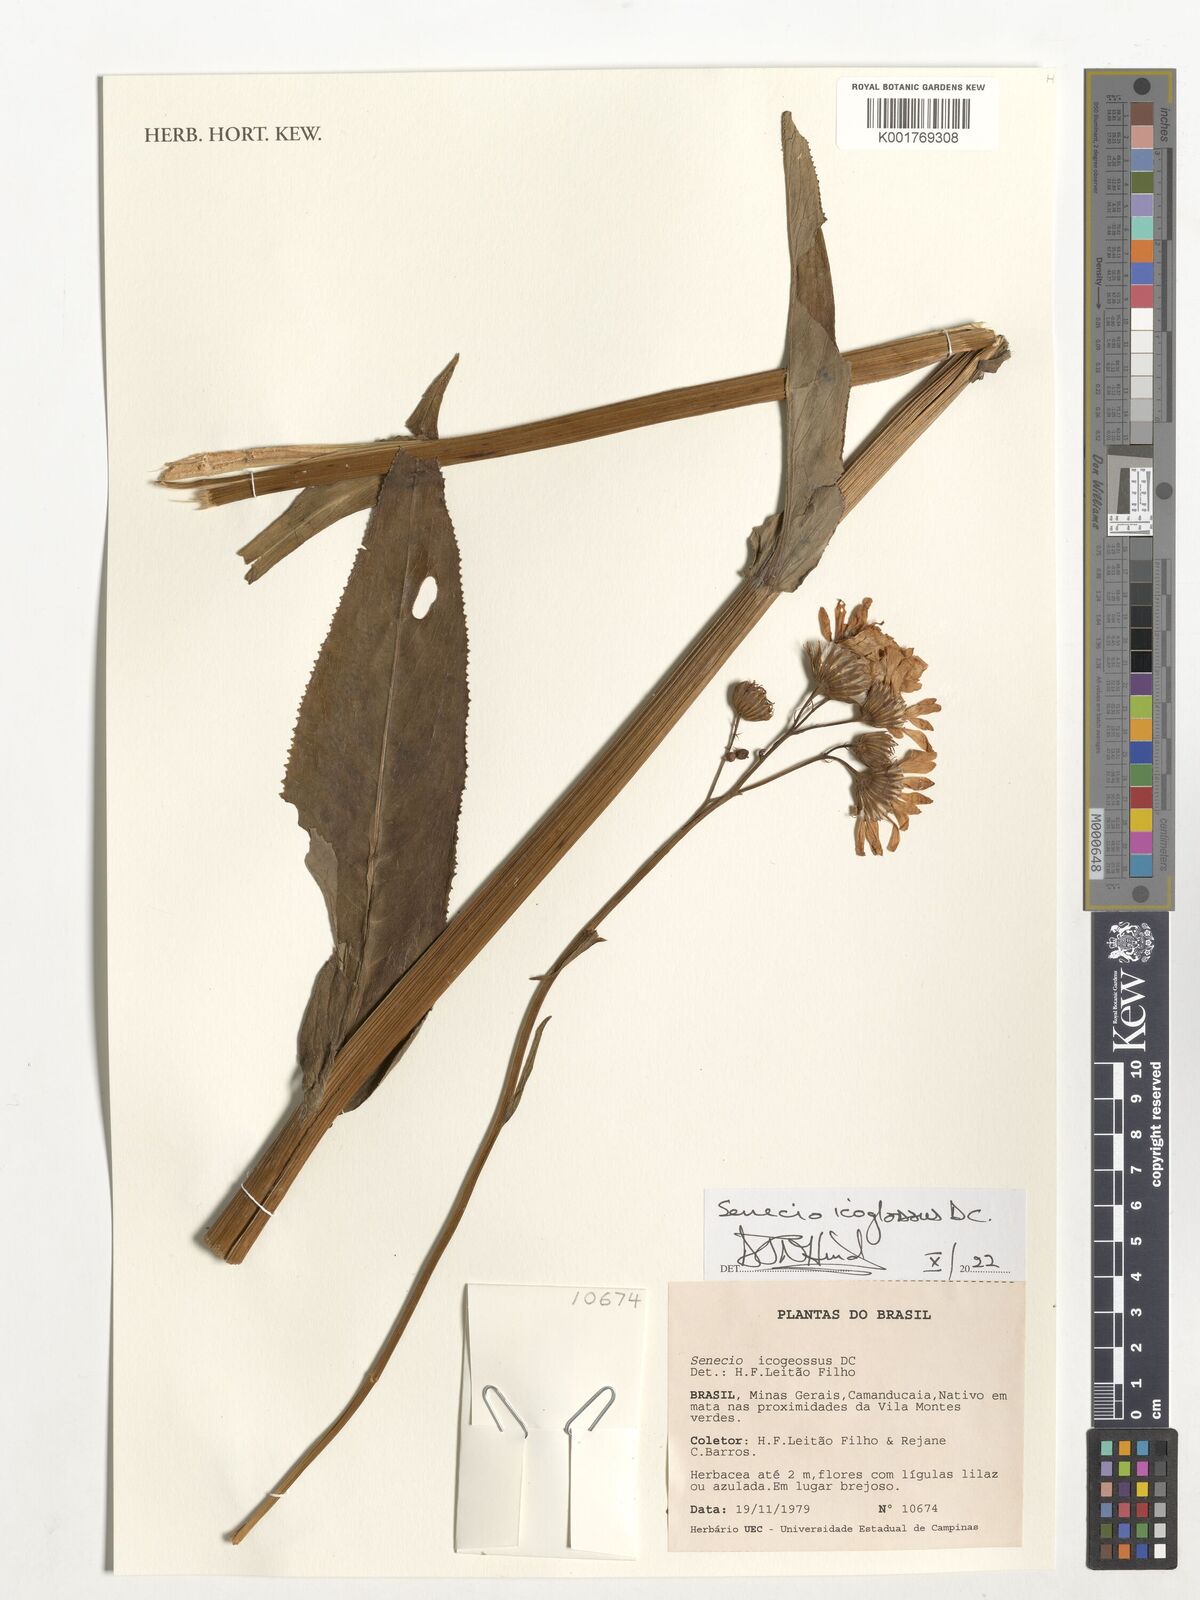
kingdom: Plantae
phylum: Tracheophyta
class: Magnoliopsida
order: Asterales
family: Asteraceae
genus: Senecio
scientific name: Senecio icoglossus
